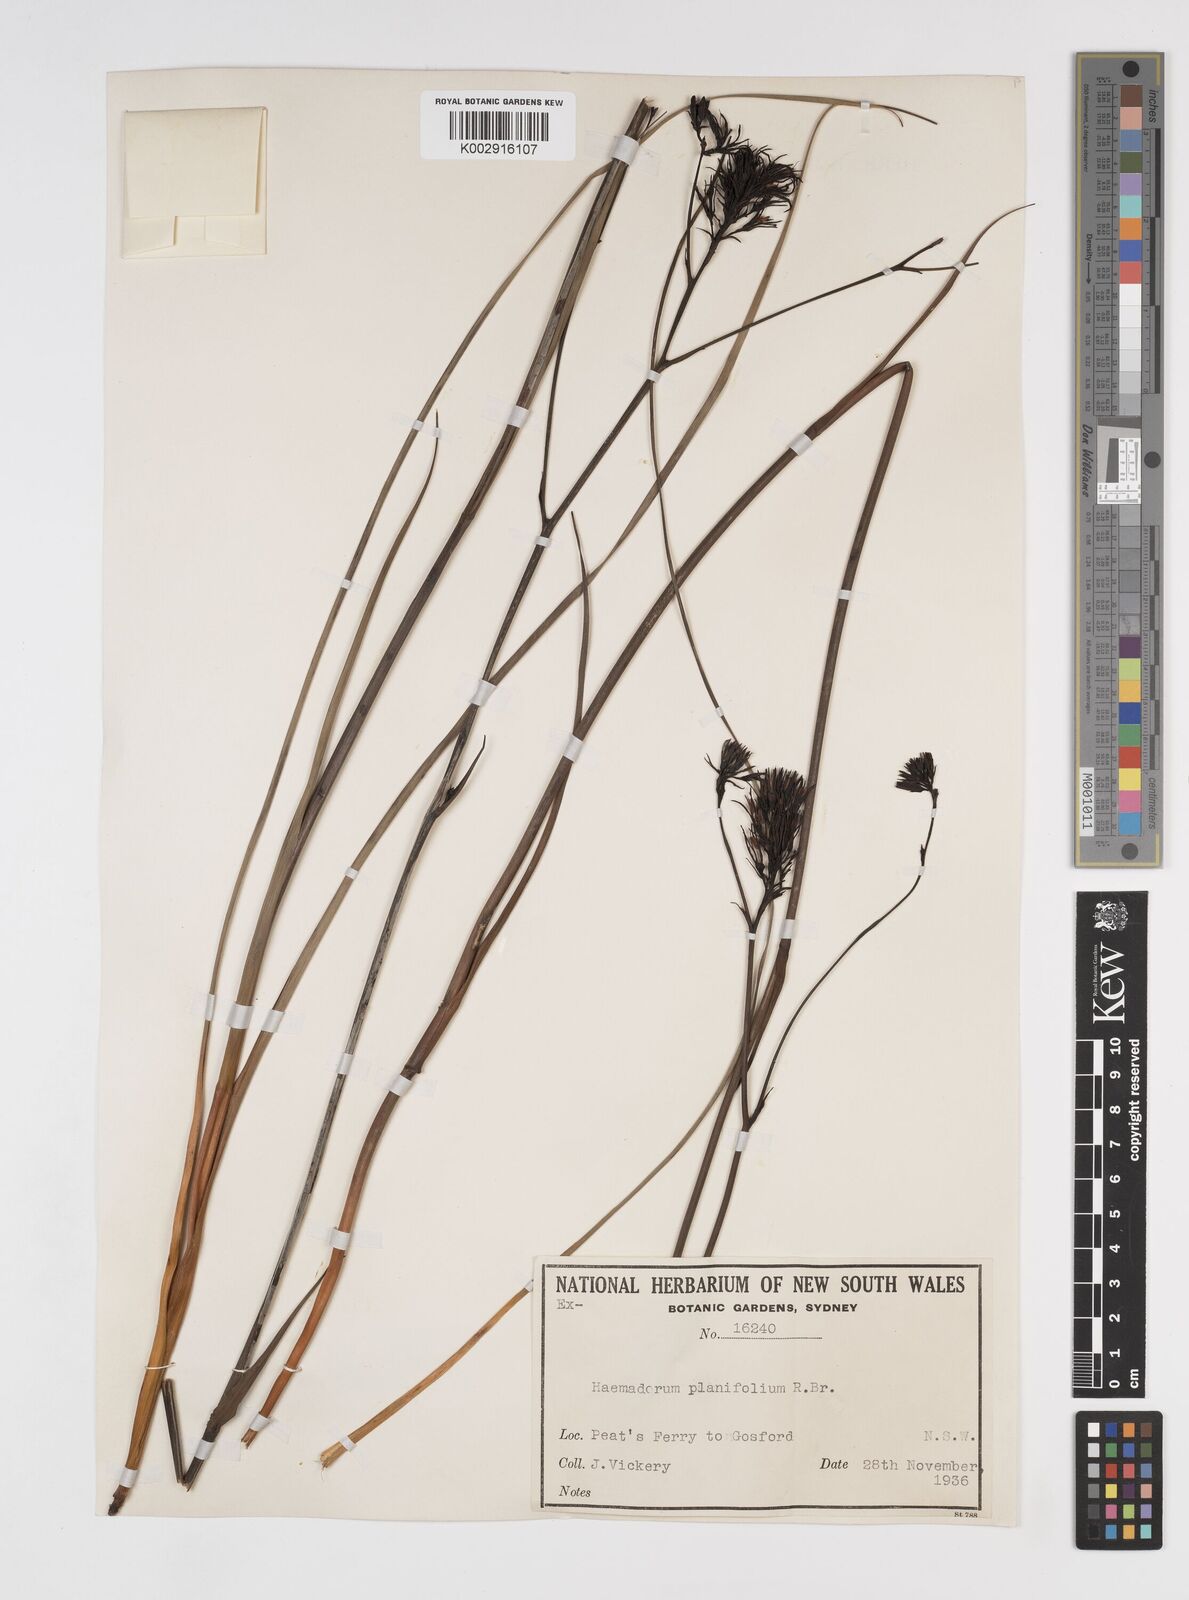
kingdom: Plantae
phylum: Tracheophyta
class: Liliopsida
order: Commelinales
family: Haemodoraceae
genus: Haemodorum
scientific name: Haemodorum planifolium
